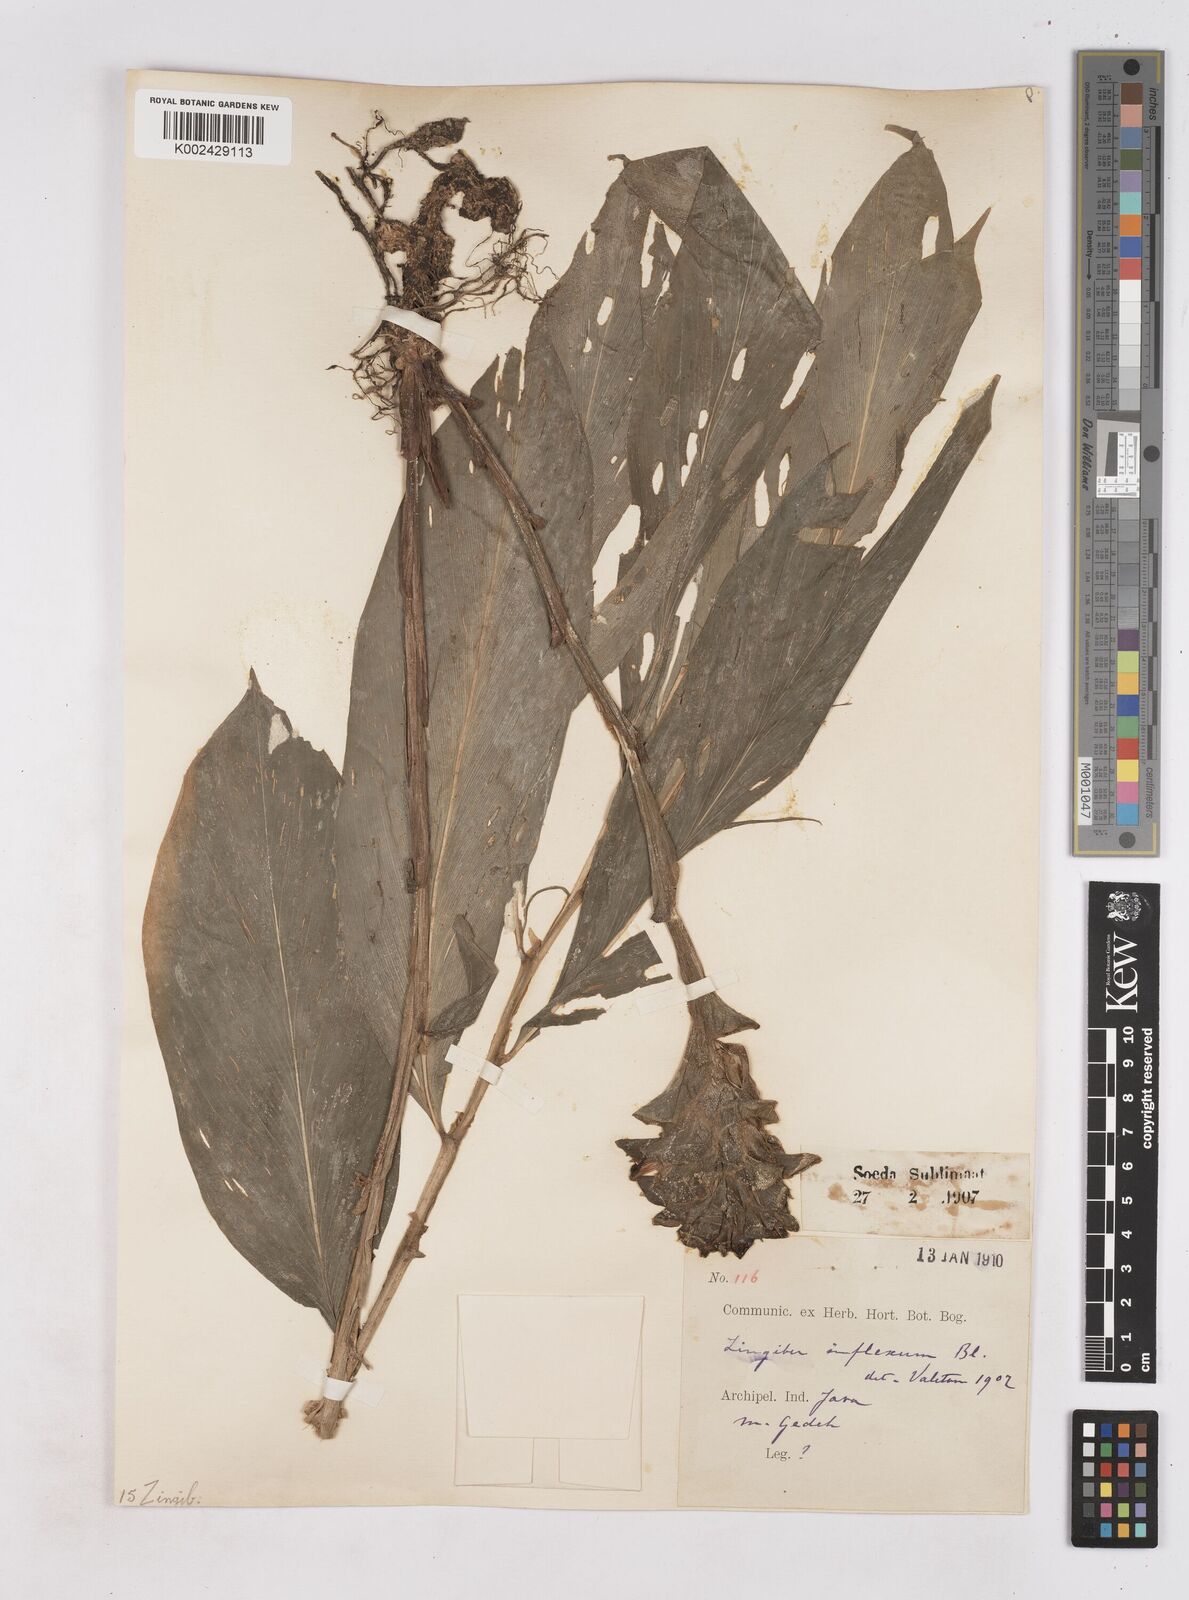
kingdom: Plantae
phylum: Tracheophyta
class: Liliopsida
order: Zingiberales
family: Zingiberaceae
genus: Zingiber
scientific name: Zingiber inflexum
